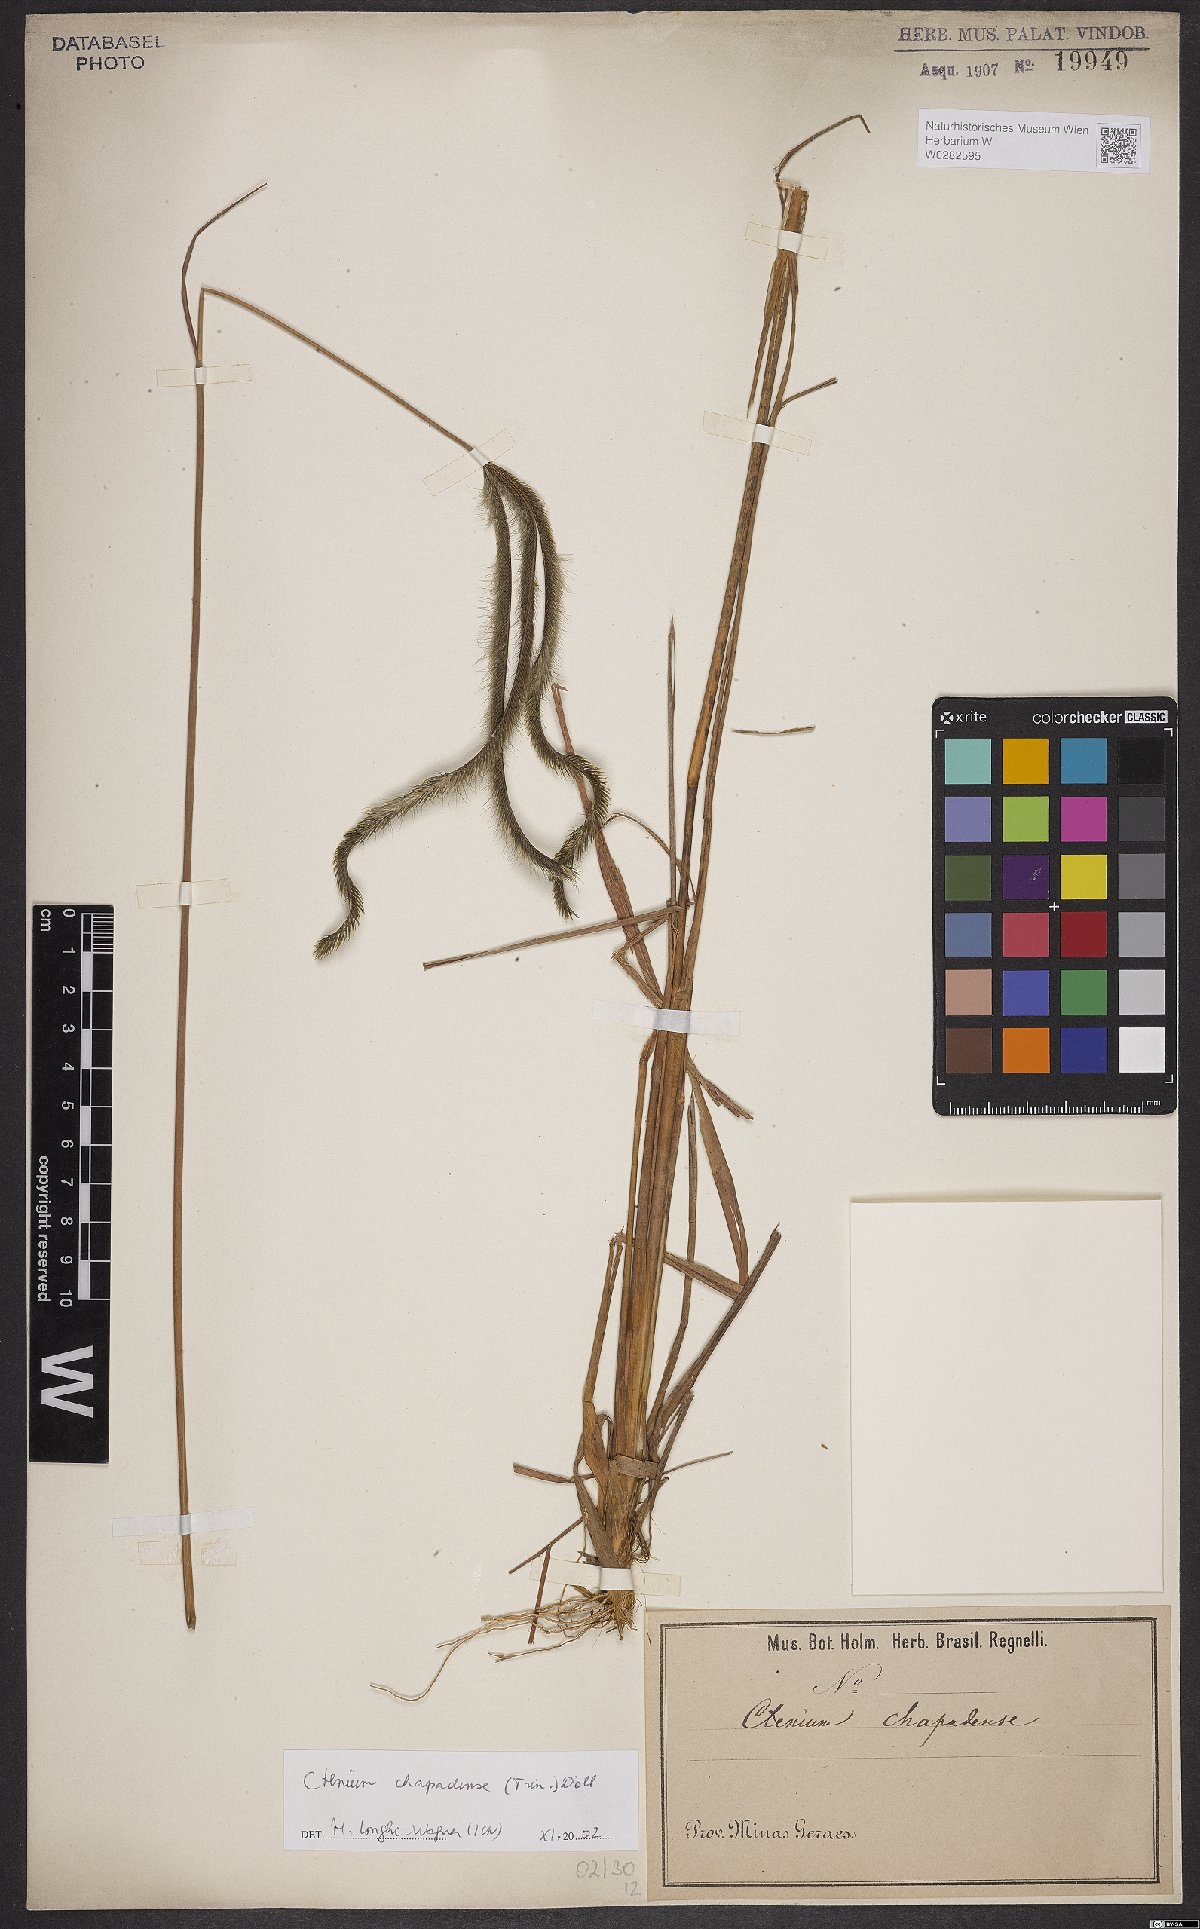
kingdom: Plantae
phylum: Tracheophyta
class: Liliopsida
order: Poales
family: Poaceae
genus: Ctenium
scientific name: Ctenium chapadense
